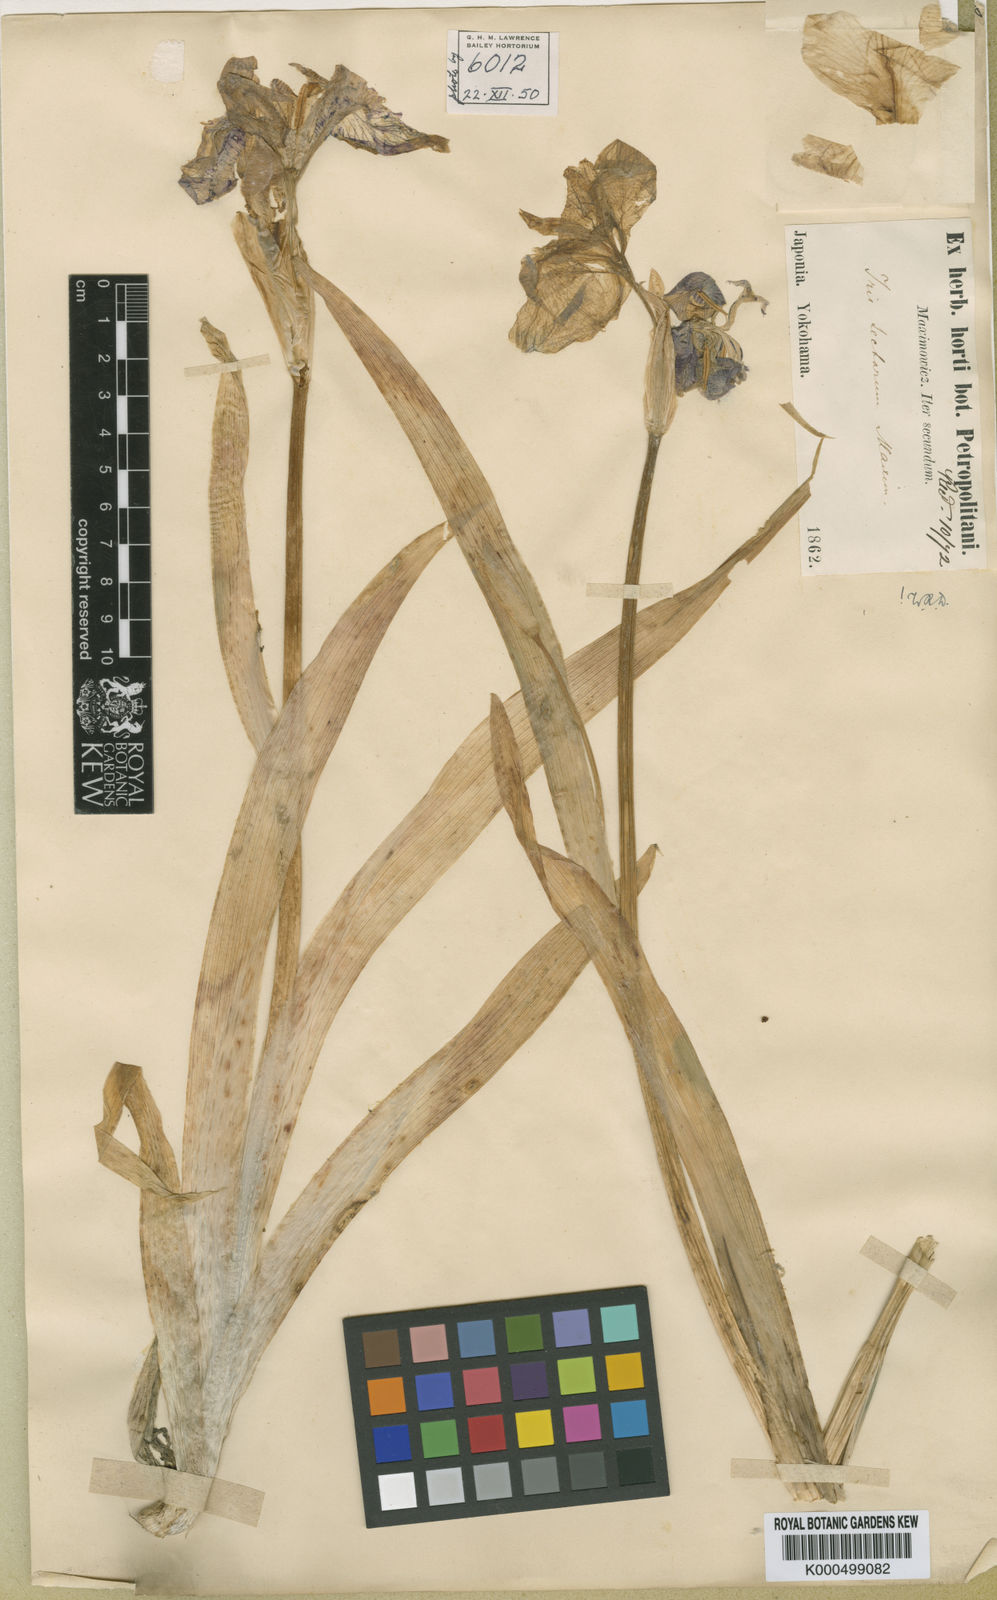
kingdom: Plantae
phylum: Tracheophyta
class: Liliopsida
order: Asparagales
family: Iridaceae
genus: Iris
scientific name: Iris tectorum
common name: Wall iris
